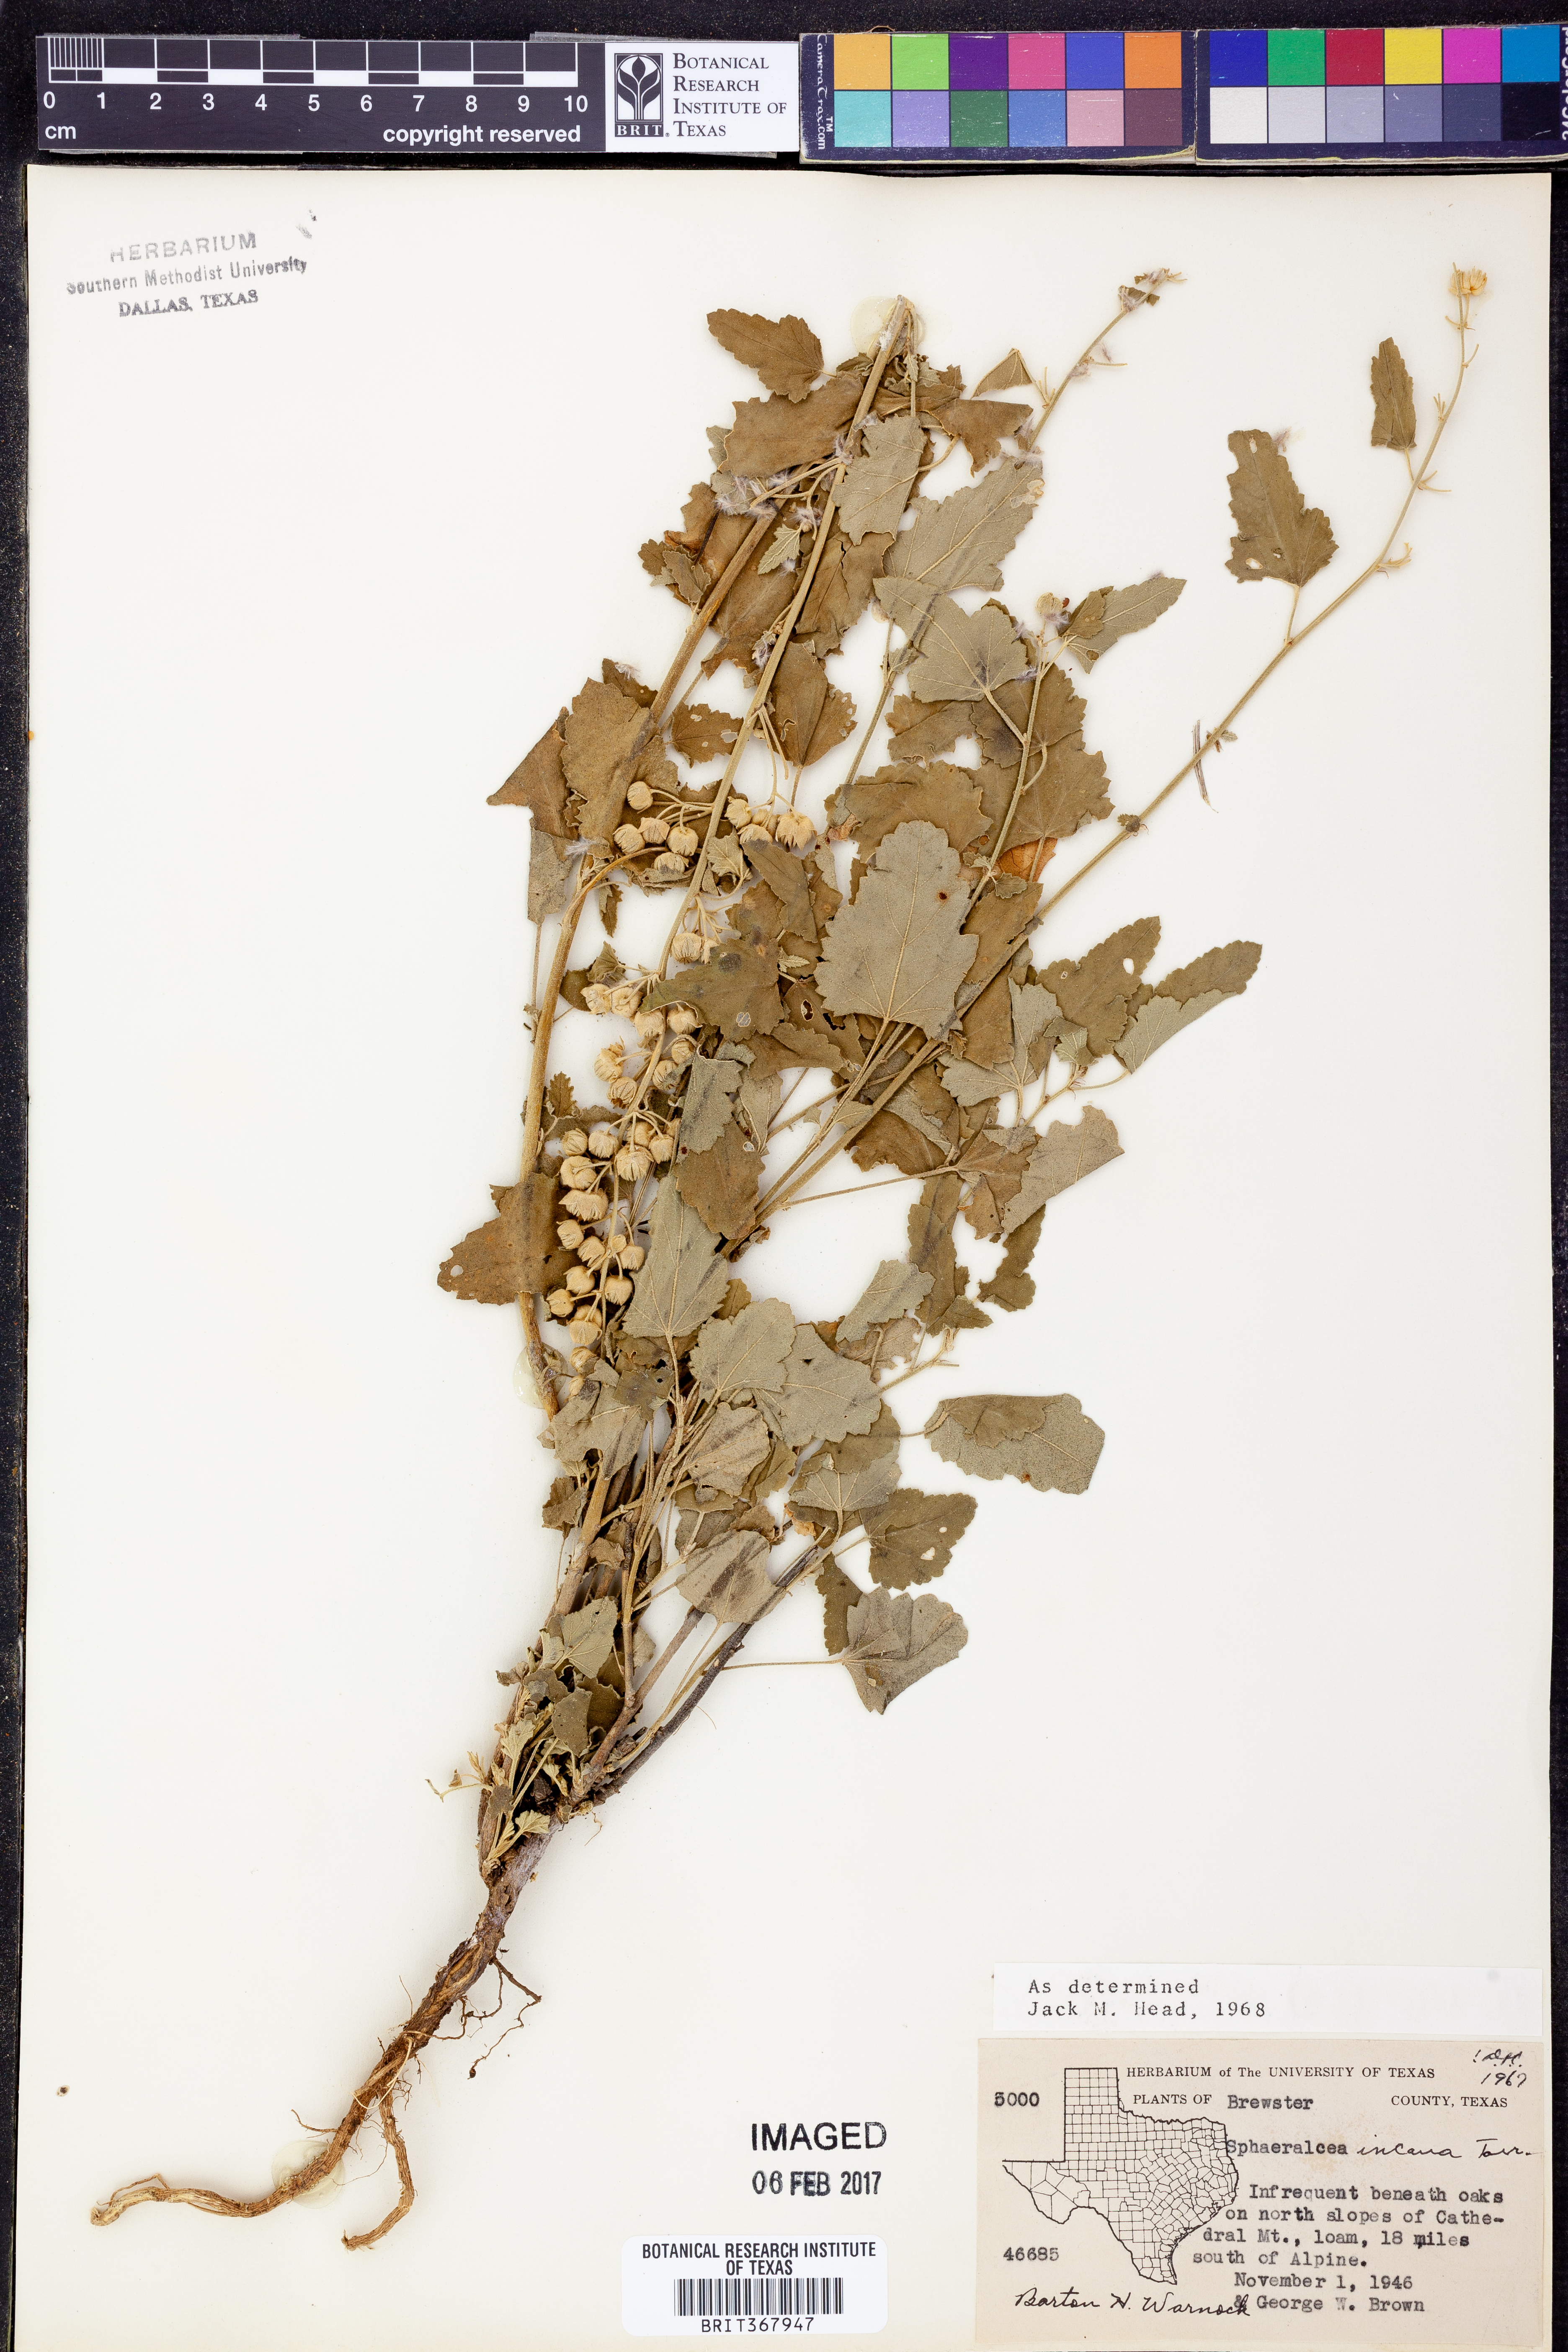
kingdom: Plantae
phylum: Tracheophyta
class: Magnoliopsida
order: Malvales
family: Malvaceae
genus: Sphaeralcea
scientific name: Sphaeralcea incana
